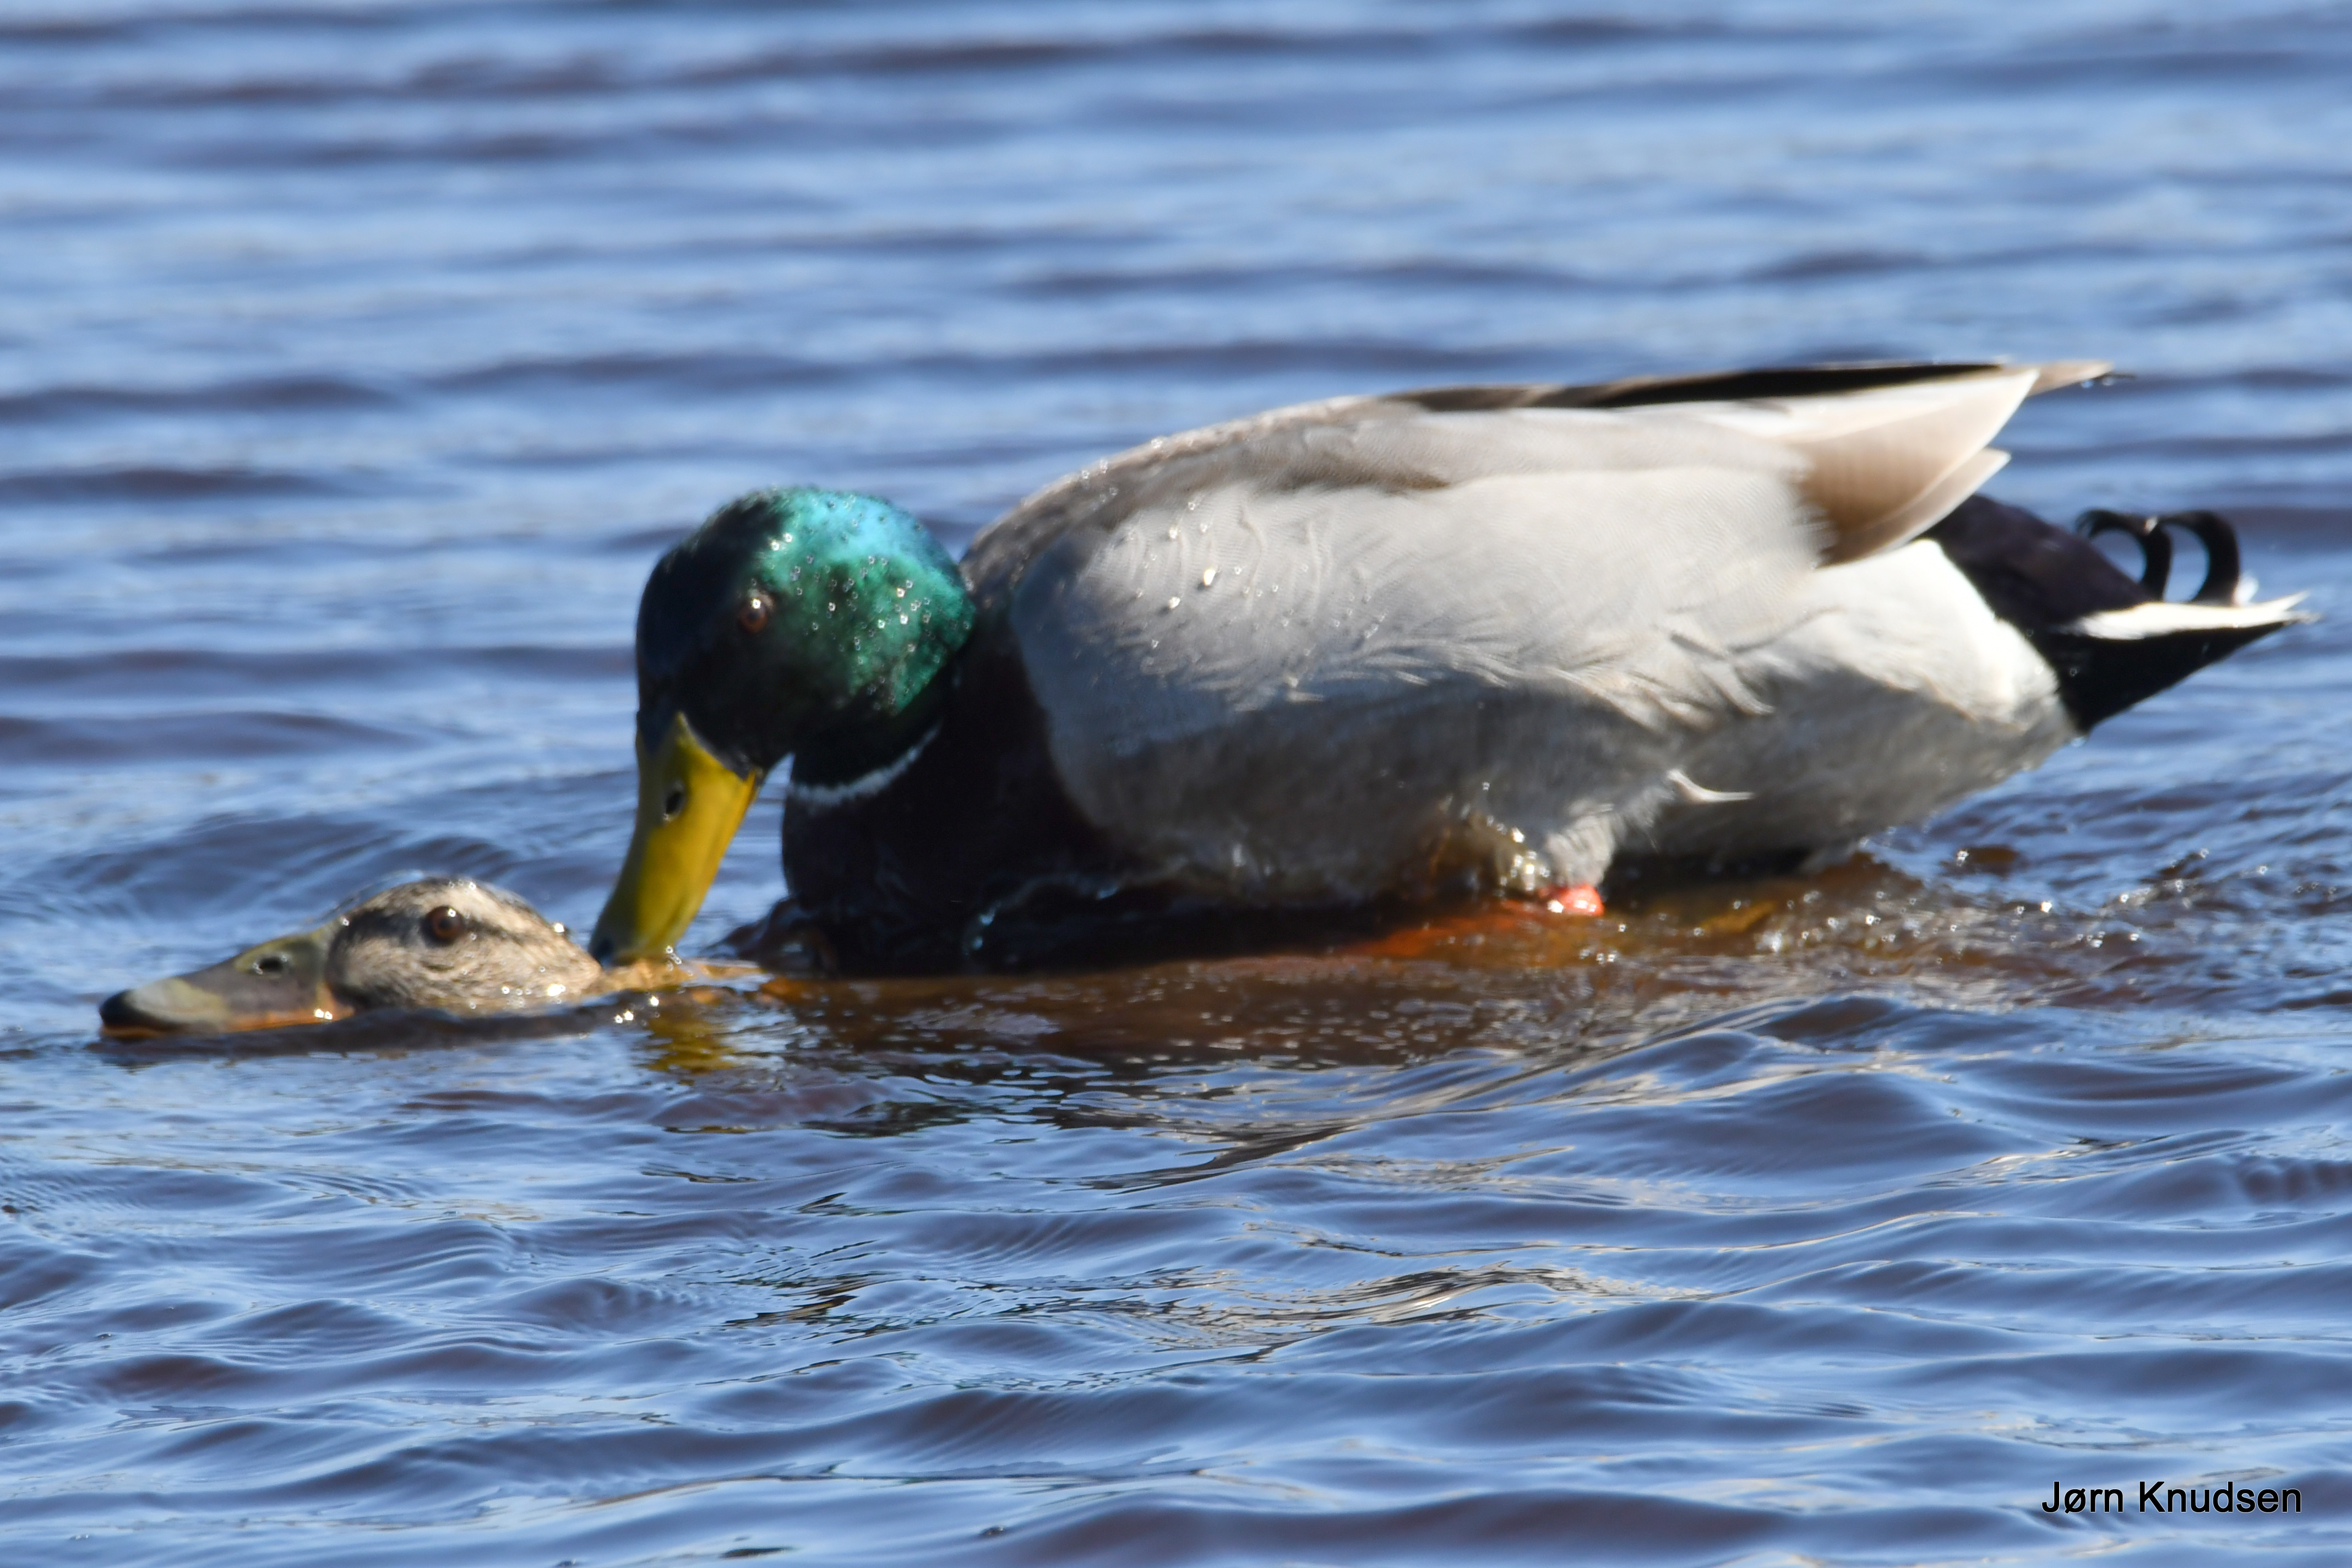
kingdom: Animalia
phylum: Chordata
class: Aves
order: Anseriformes
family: Anatidae
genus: Anas
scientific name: Anas platyrhynchos
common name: Gråand
